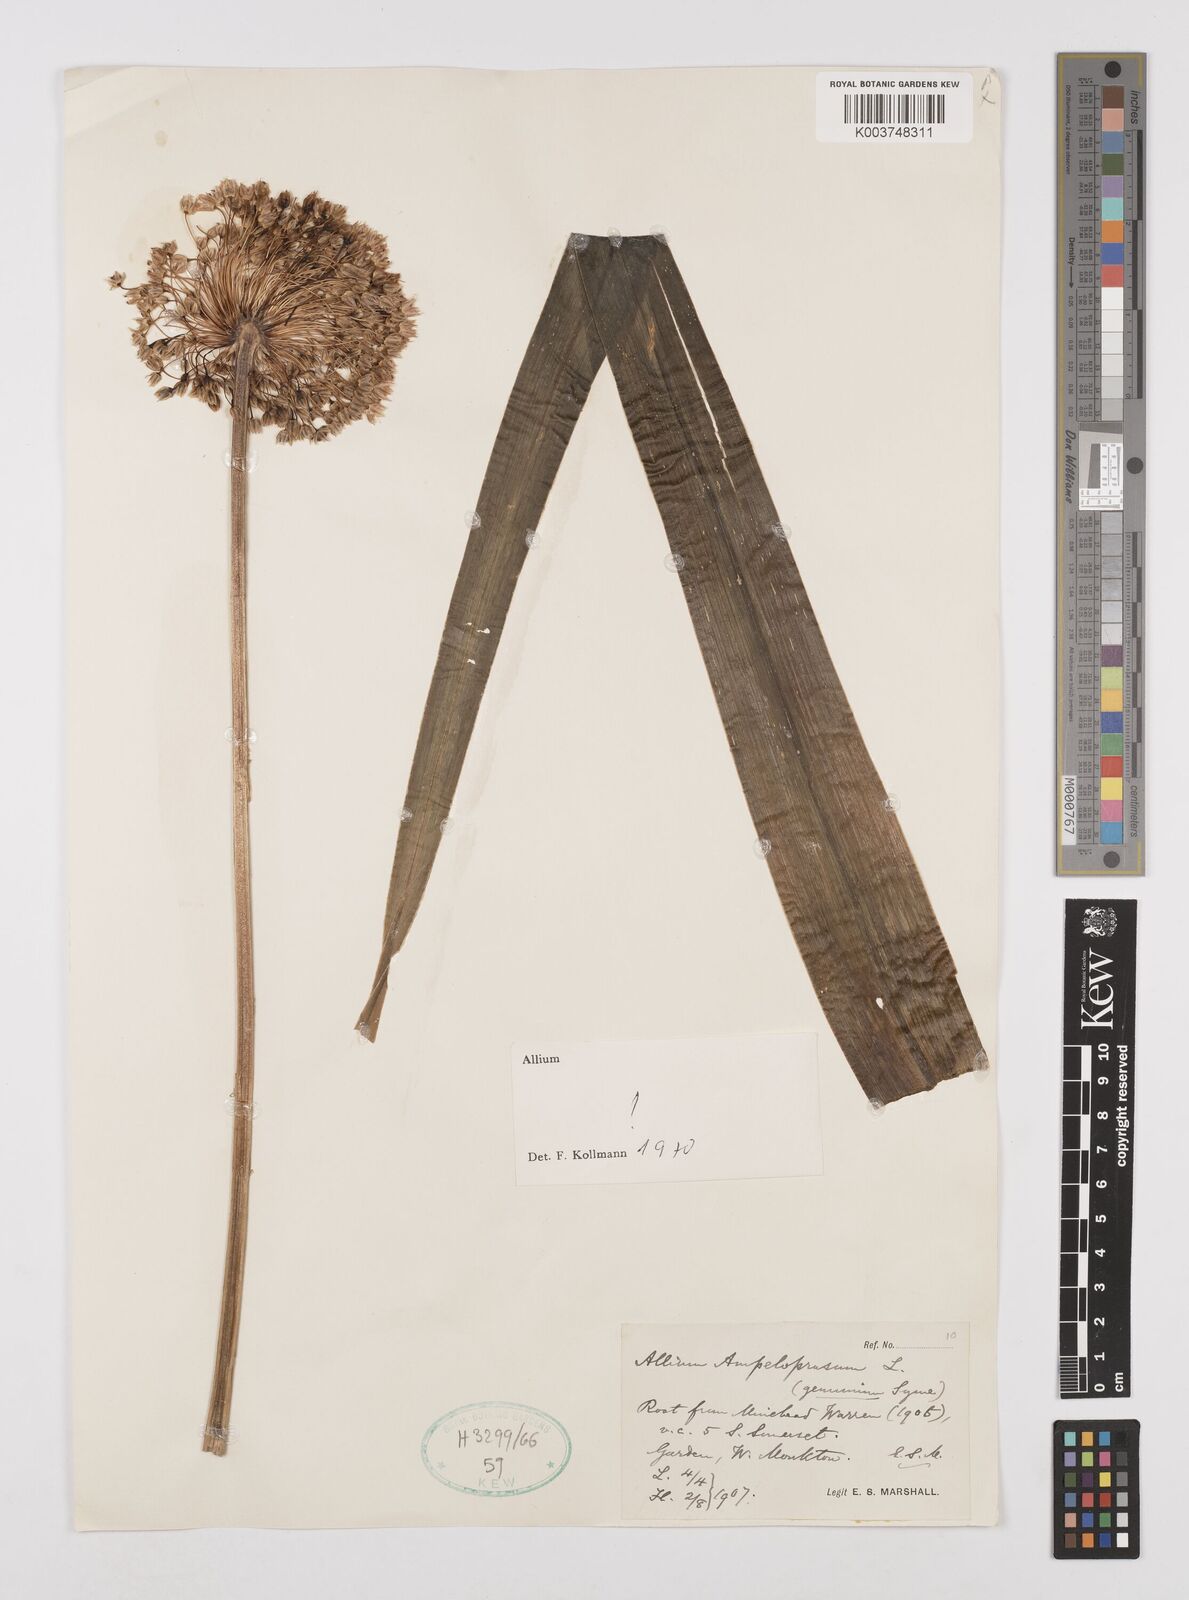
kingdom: Plantae
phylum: Tracheophyta
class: Liliopsida
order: Asparagales
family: Amaryllidaceae
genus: Allium
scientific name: Allium ampeloprasum
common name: Wild leek
